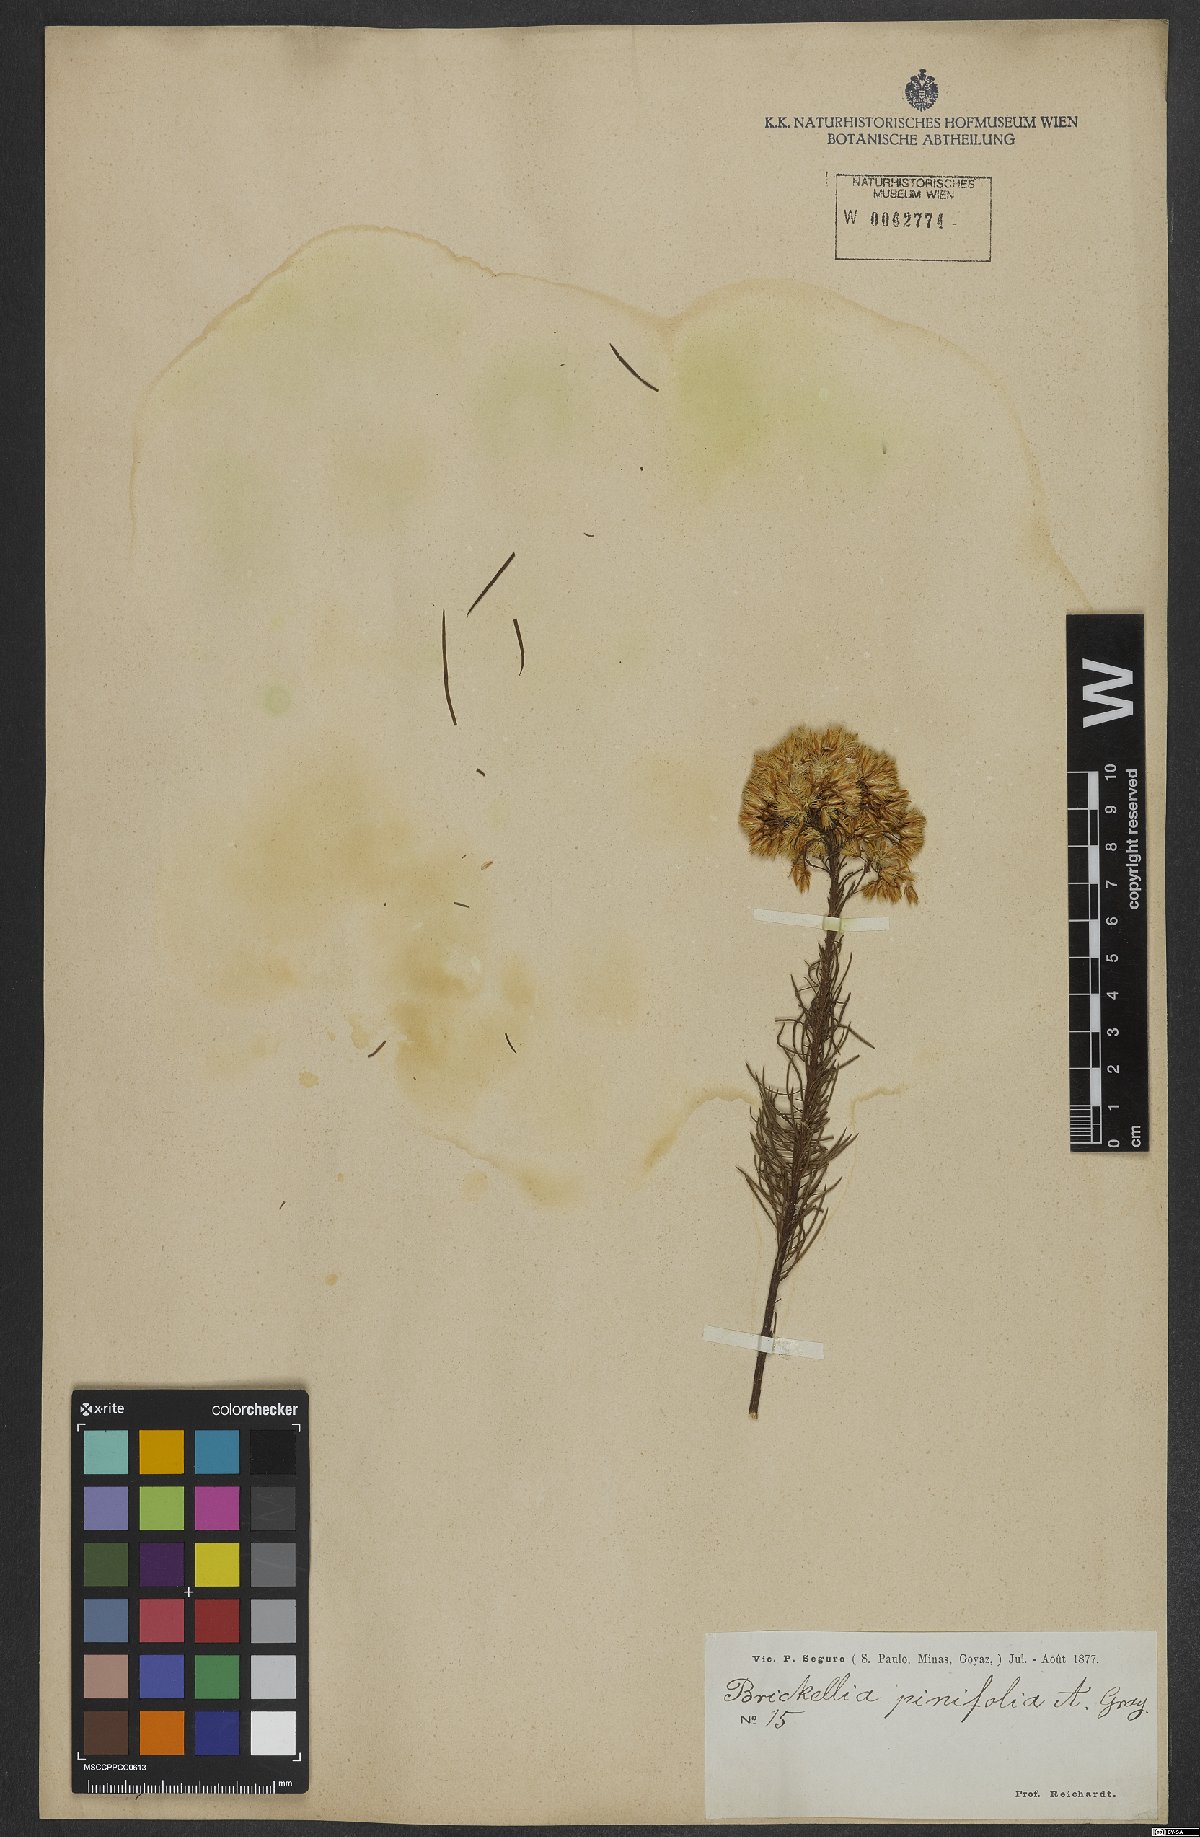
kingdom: Plantae
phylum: Tracheophyta
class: Magnoliopsida
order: Asterales
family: Asteraceae
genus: Pseudobrickellia
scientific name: Pseudobrickellia brasiliensis
